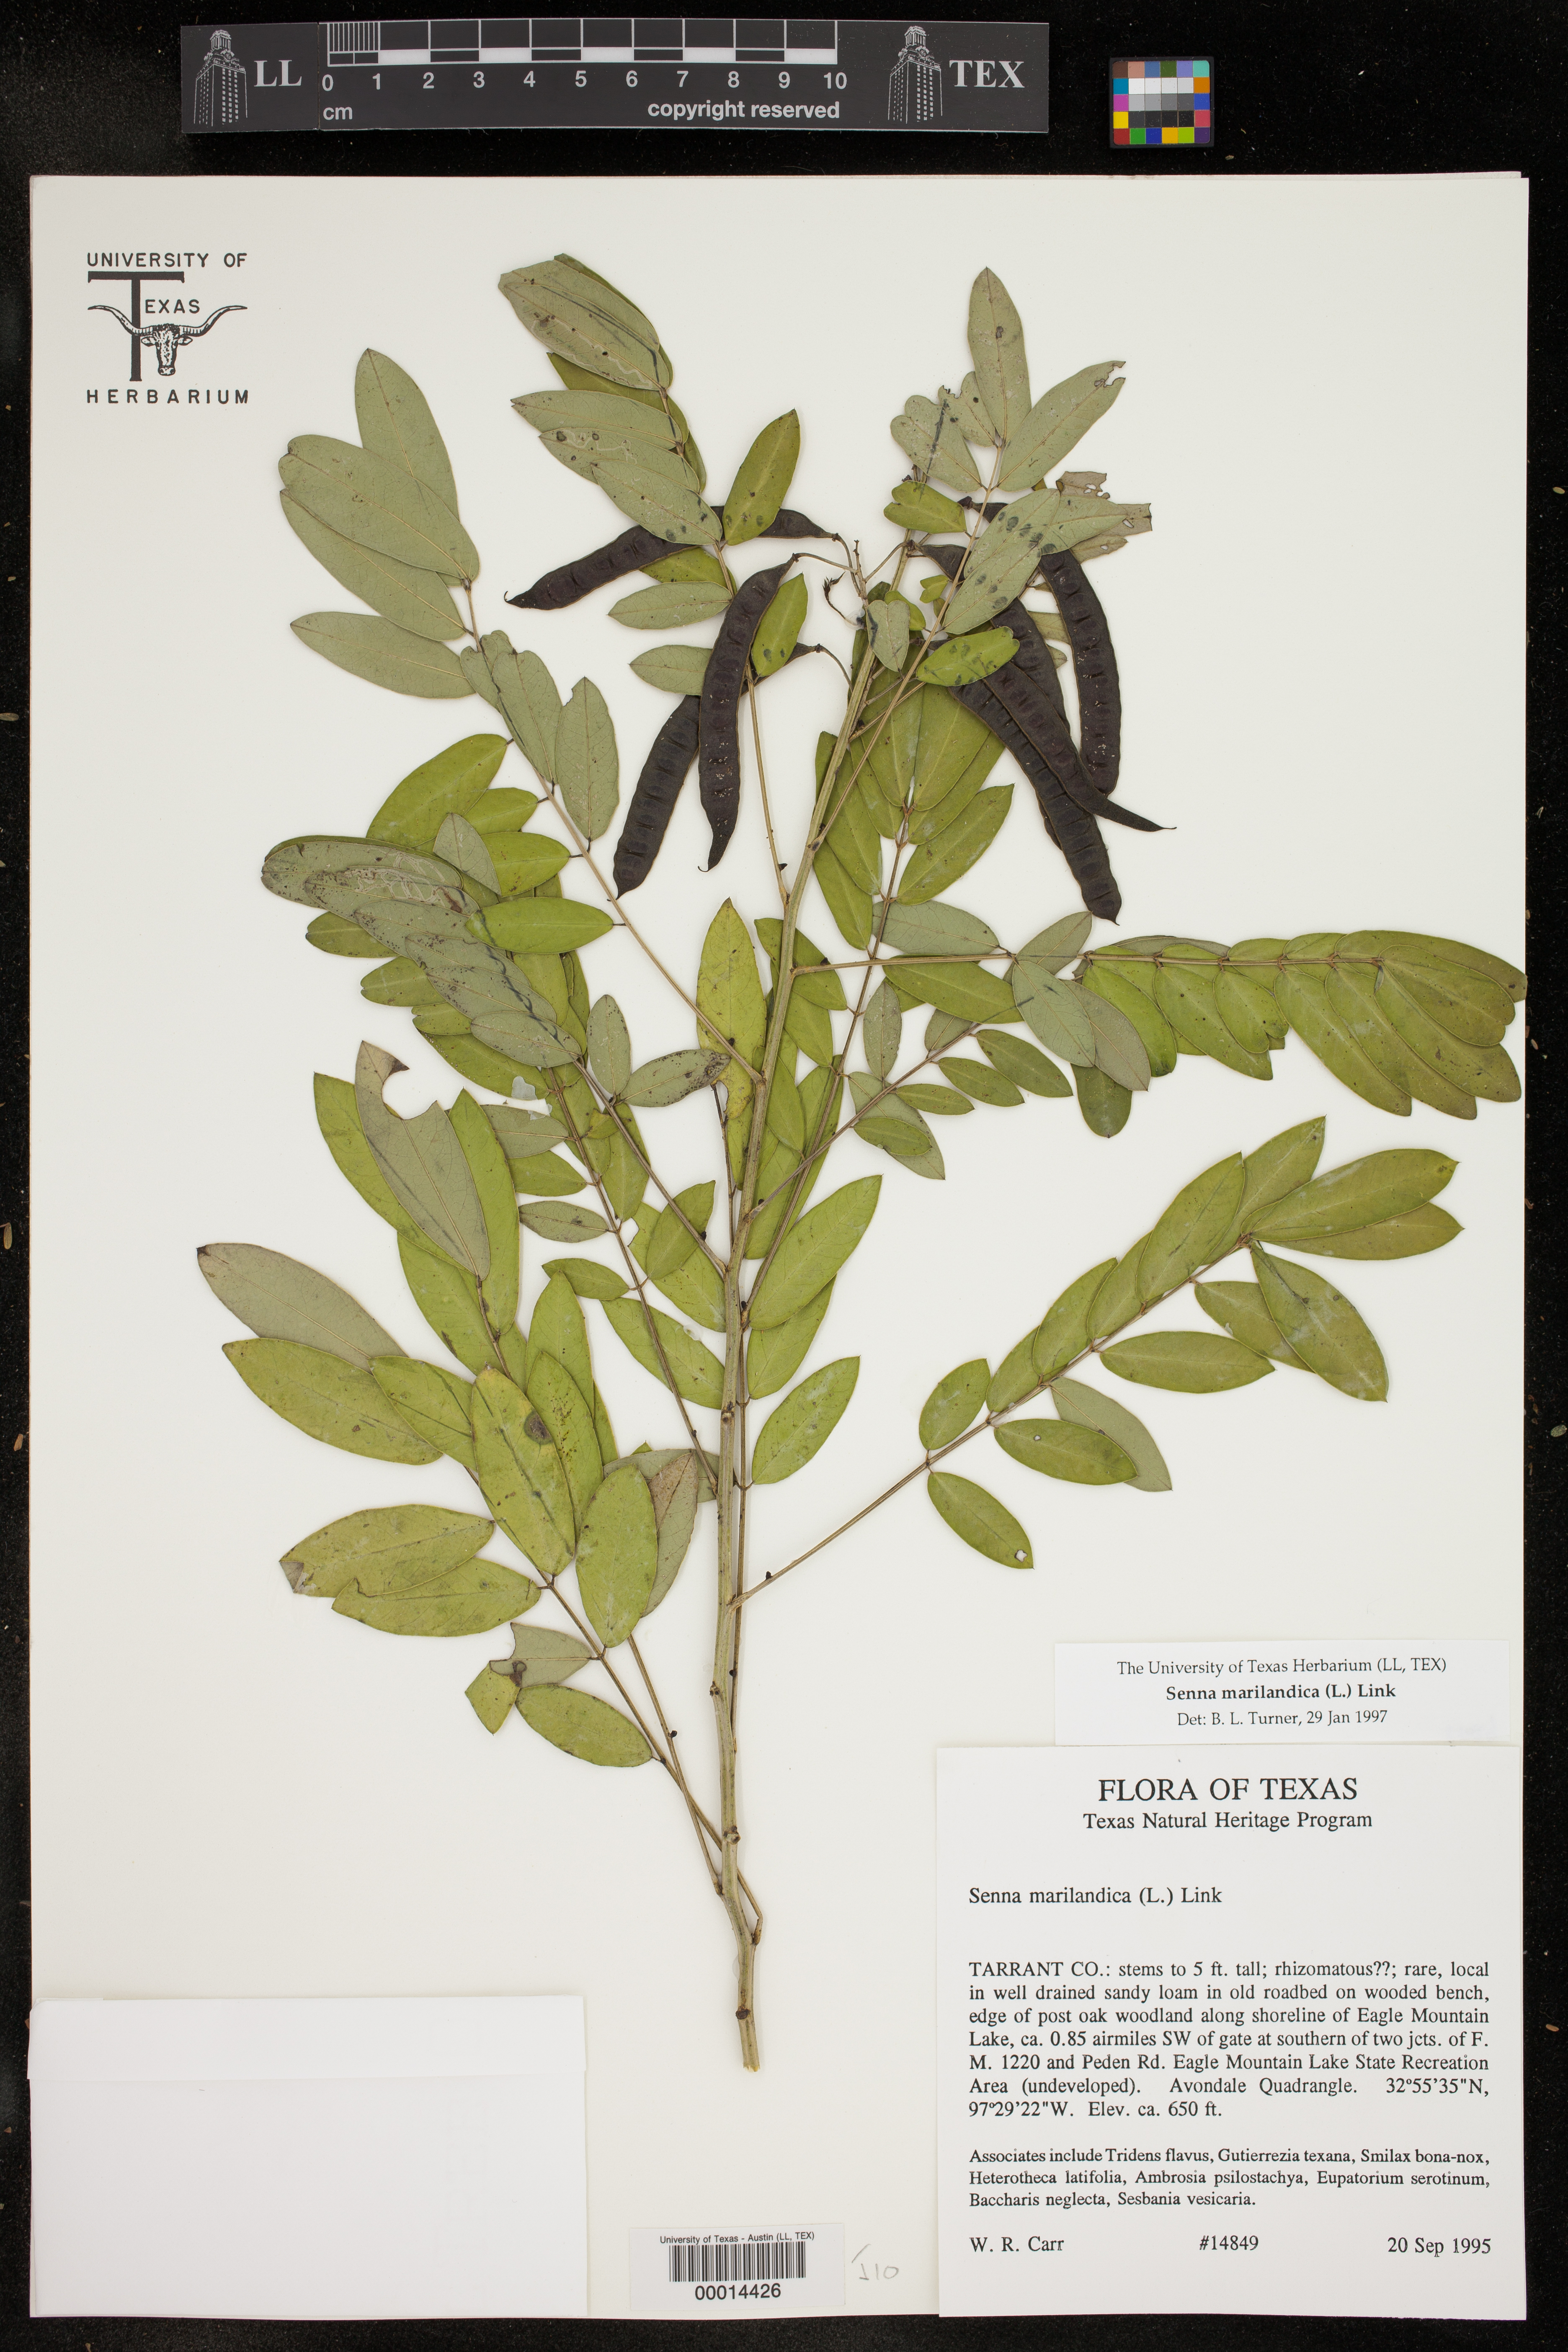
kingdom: Plantae
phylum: Tracheophyta
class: Magnoliopsida
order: Fabales
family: Fabaceae
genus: Senna
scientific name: Senna marilandica
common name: American senna
